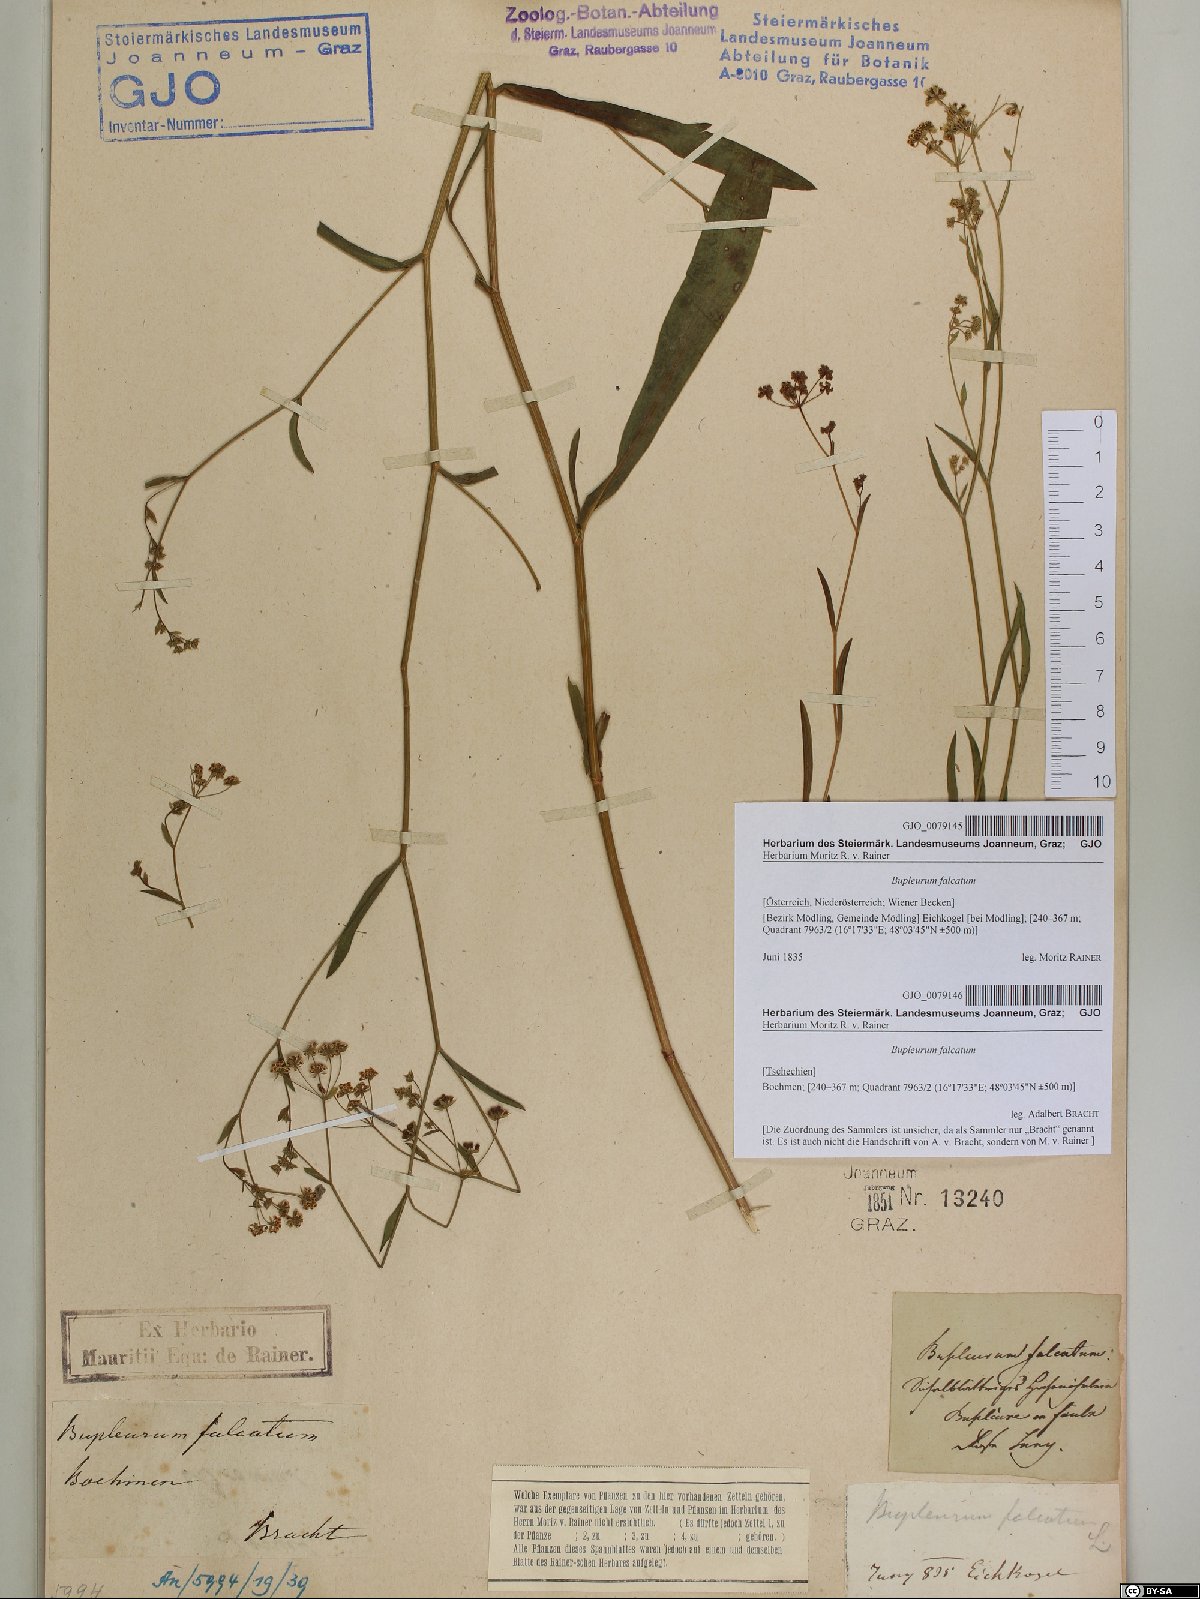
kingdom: Plantae
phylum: Tracheophyta
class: Magnoliopsida
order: Apiales
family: Apiaceae
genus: Bupleurum
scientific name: Bupleurum falcatum
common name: Sickle-leaved hare's-ear
